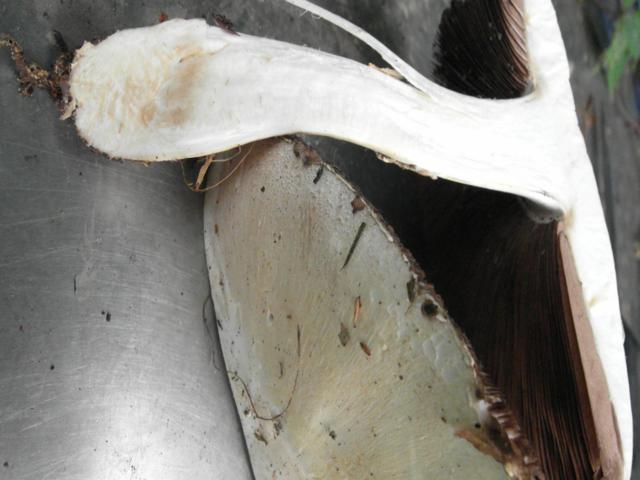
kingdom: Fungi
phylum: Basidiomycota
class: Agaricomycetes
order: Agaricales
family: Agaricaceae
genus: Agaricus
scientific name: Agaricus litoralis
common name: kyst-champignon
